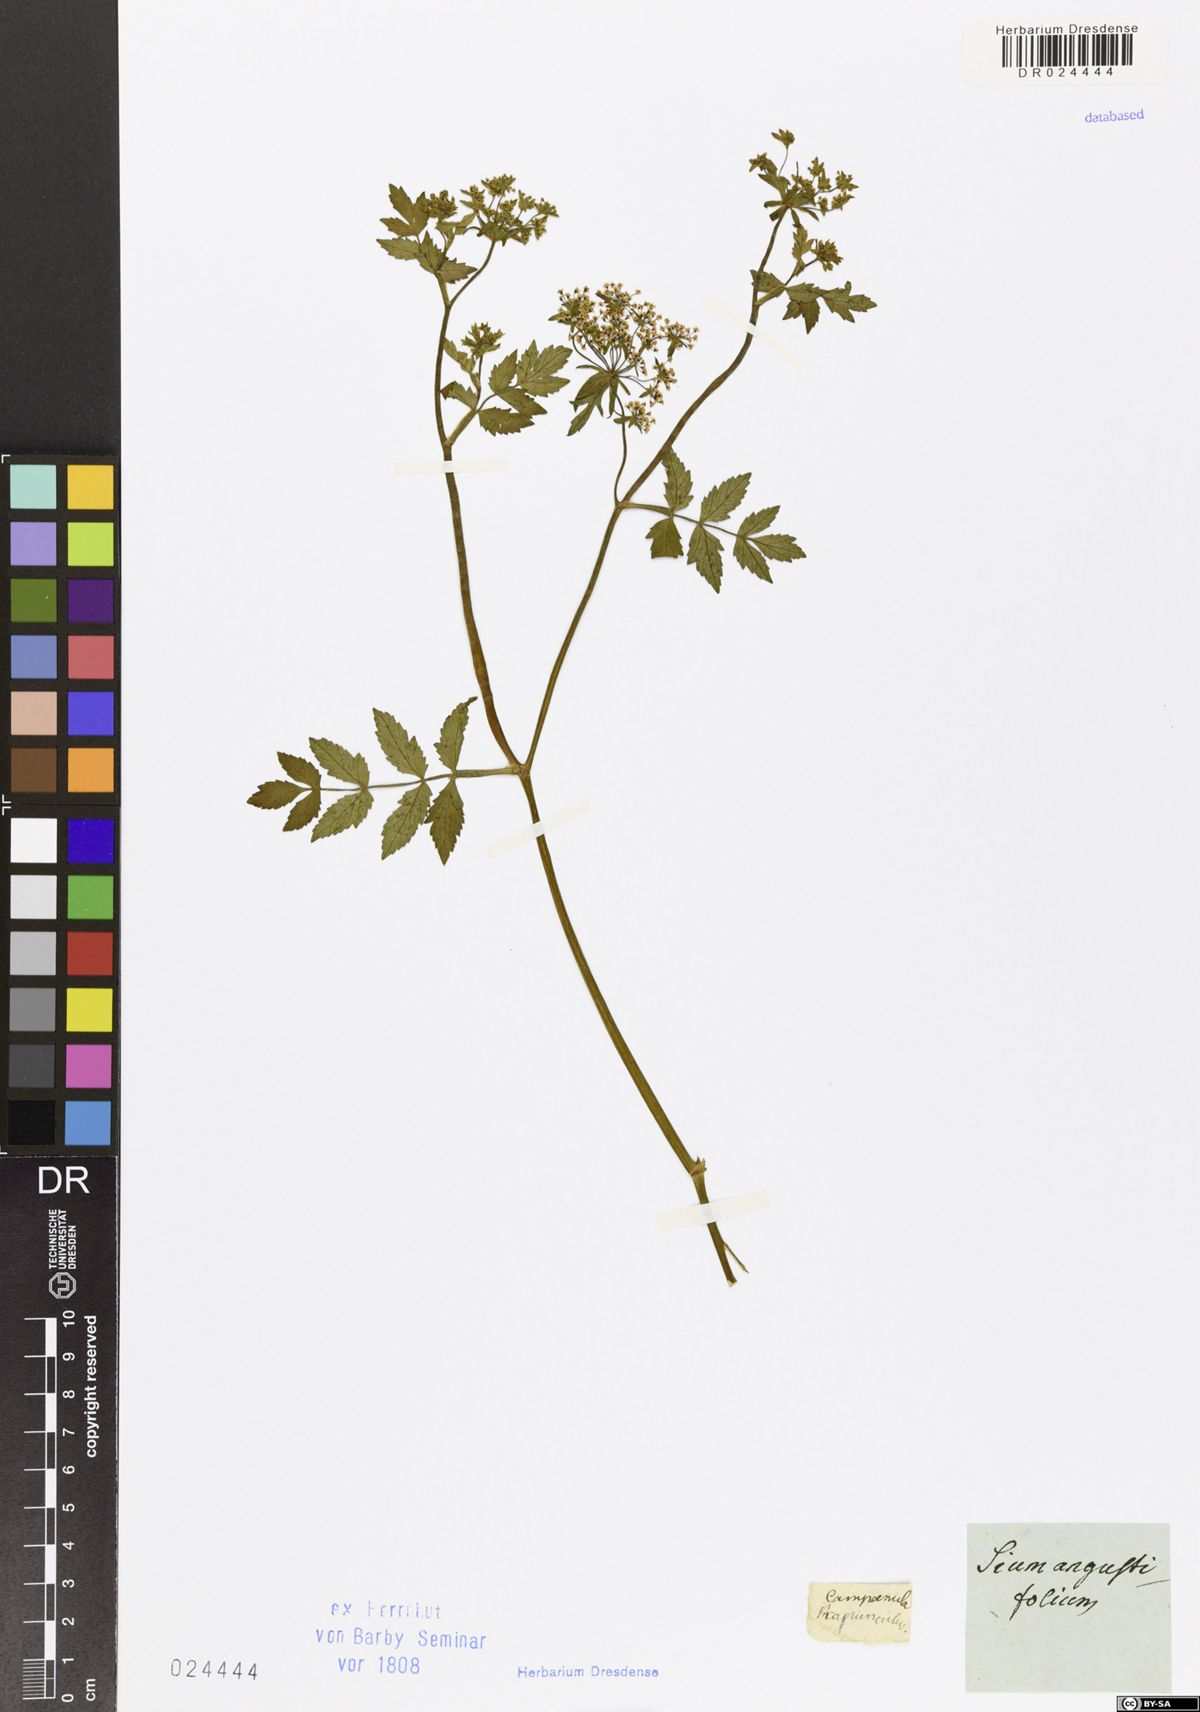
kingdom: Plantae
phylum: Tracheophyta
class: Magnoliopsida
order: Apiales
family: Apiaceae
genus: Berula
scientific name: Berula erecta
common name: Lesser water-parsnip
